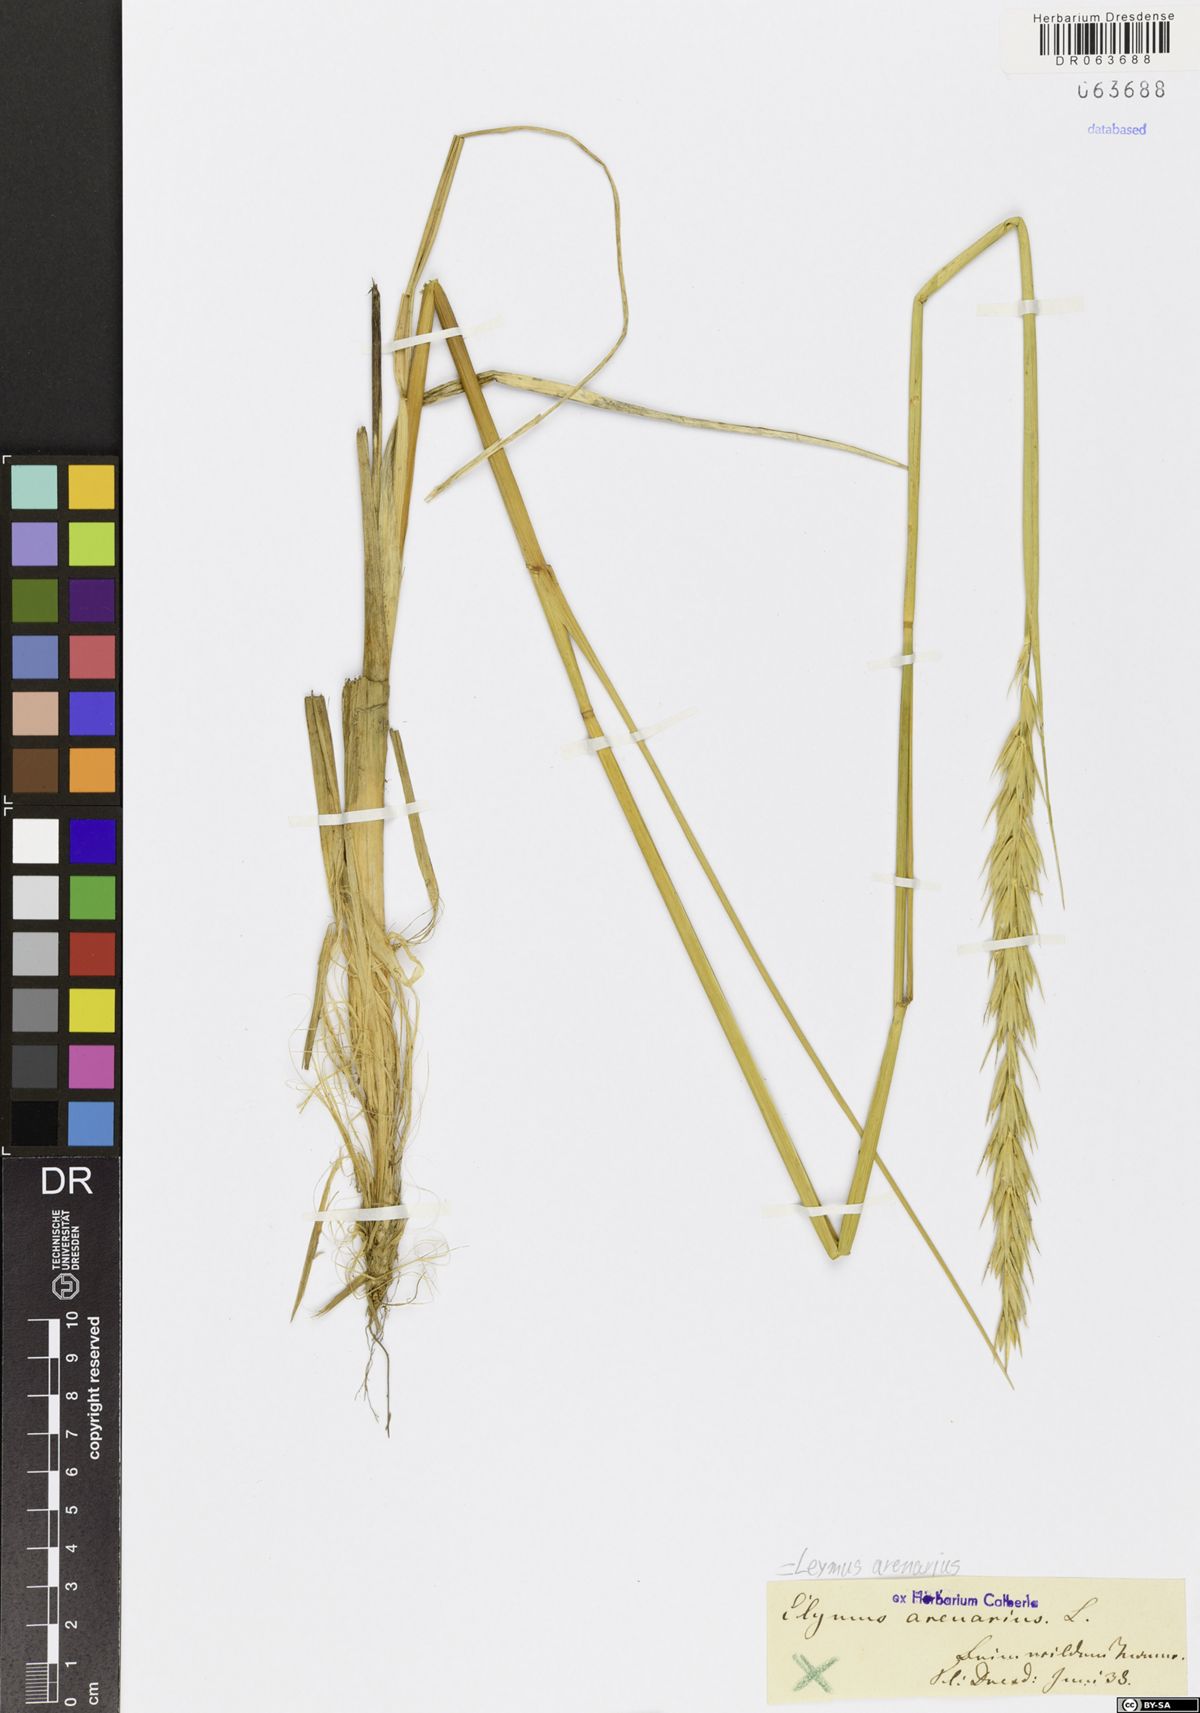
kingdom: Plantae
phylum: Tracheophyta
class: Liliopsida
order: Poales
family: Poaceae
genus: Leymus
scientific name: Leymus arenarius
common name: Lyme-grass
